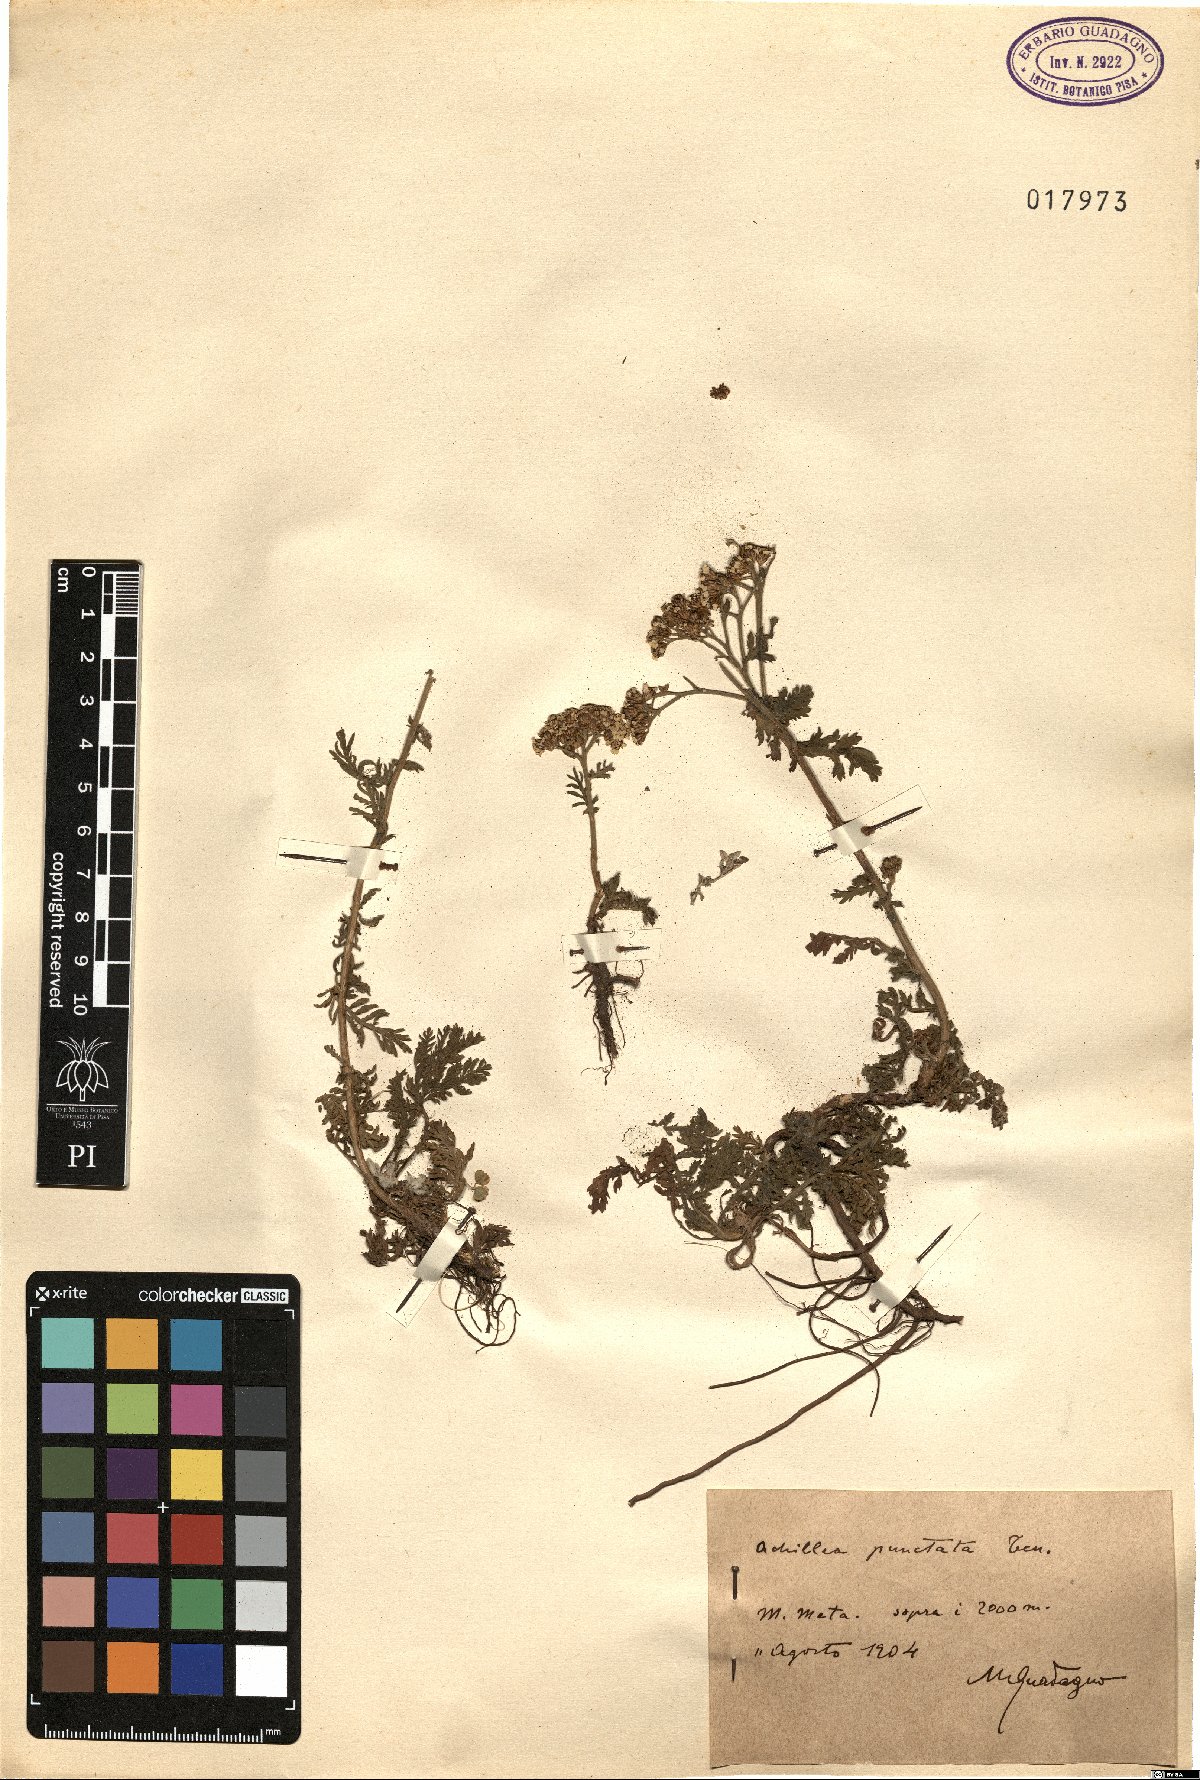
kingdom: Plantae
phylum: Tracheophyta
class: Magnoliopsida
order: Asterales
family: Asteraceae
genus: Achillea
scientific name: Achillea virescens
